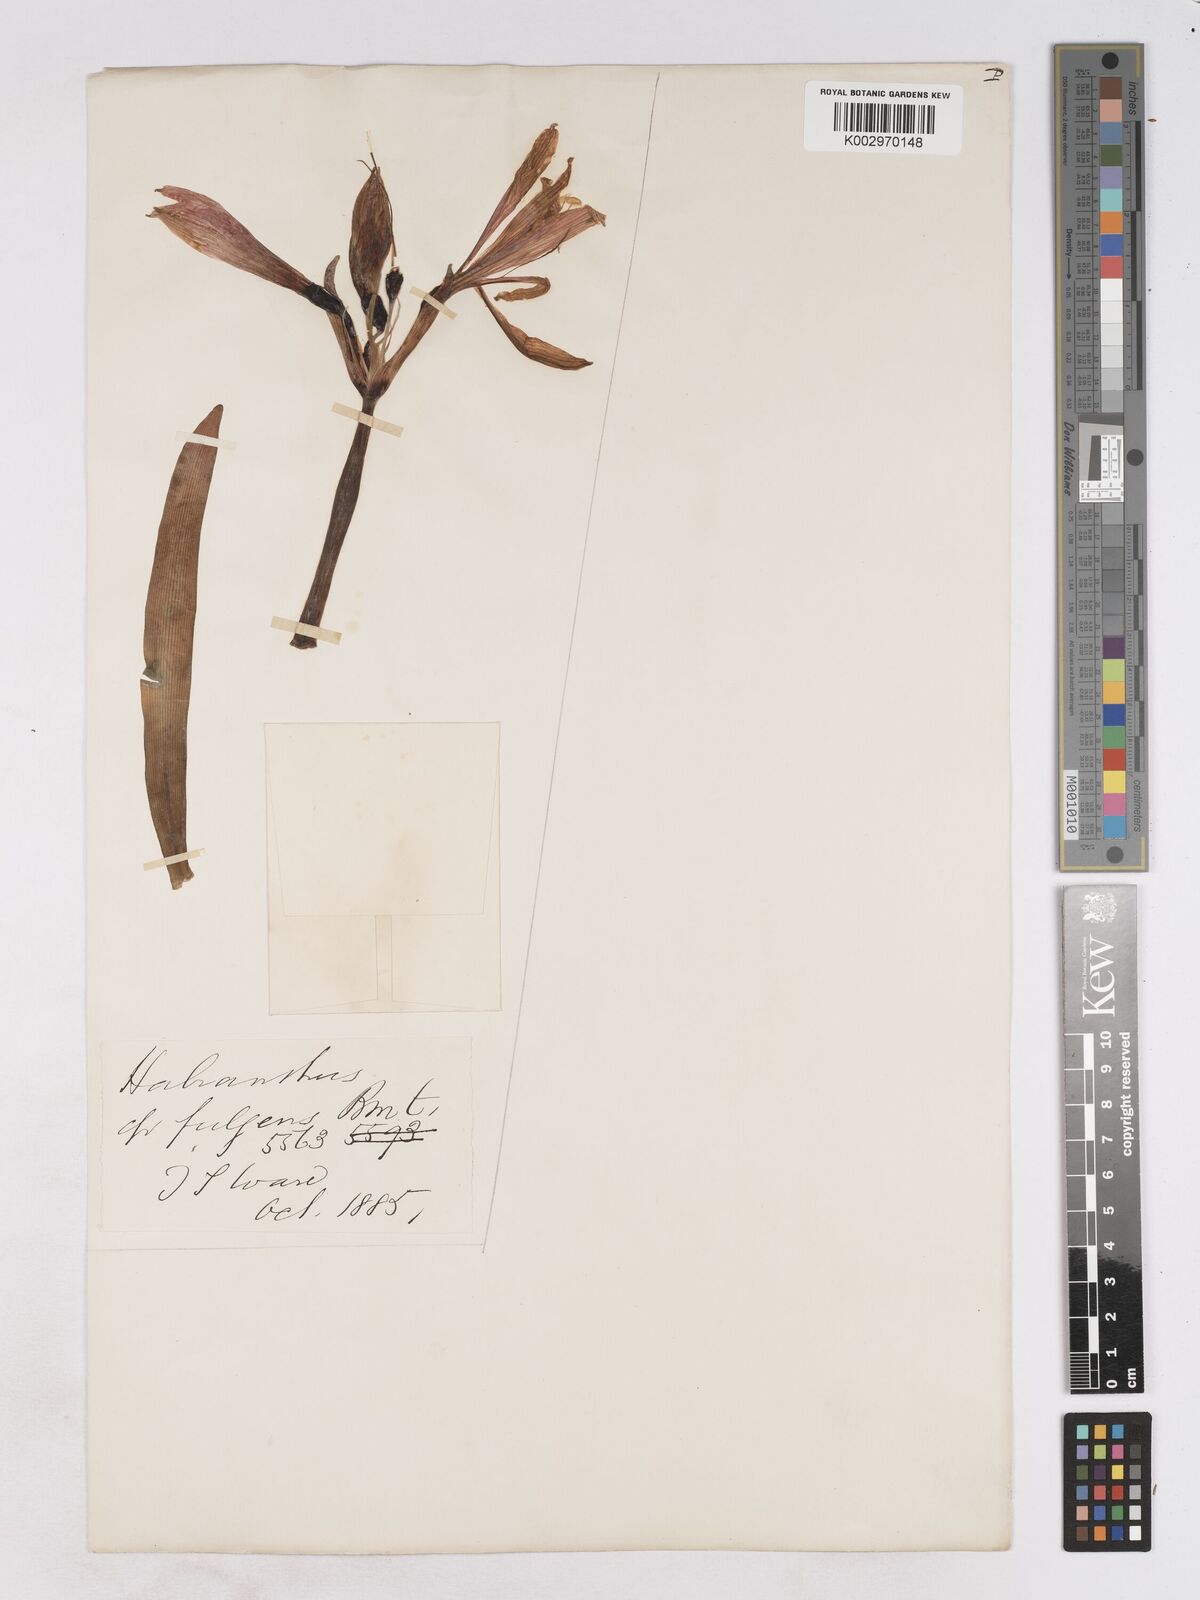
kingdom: Plantae
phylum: Tracheophyta
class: Liliopsida
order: Asparagales
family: Amaryllidaceae
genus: Phycella
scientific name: Phycella chilensis
